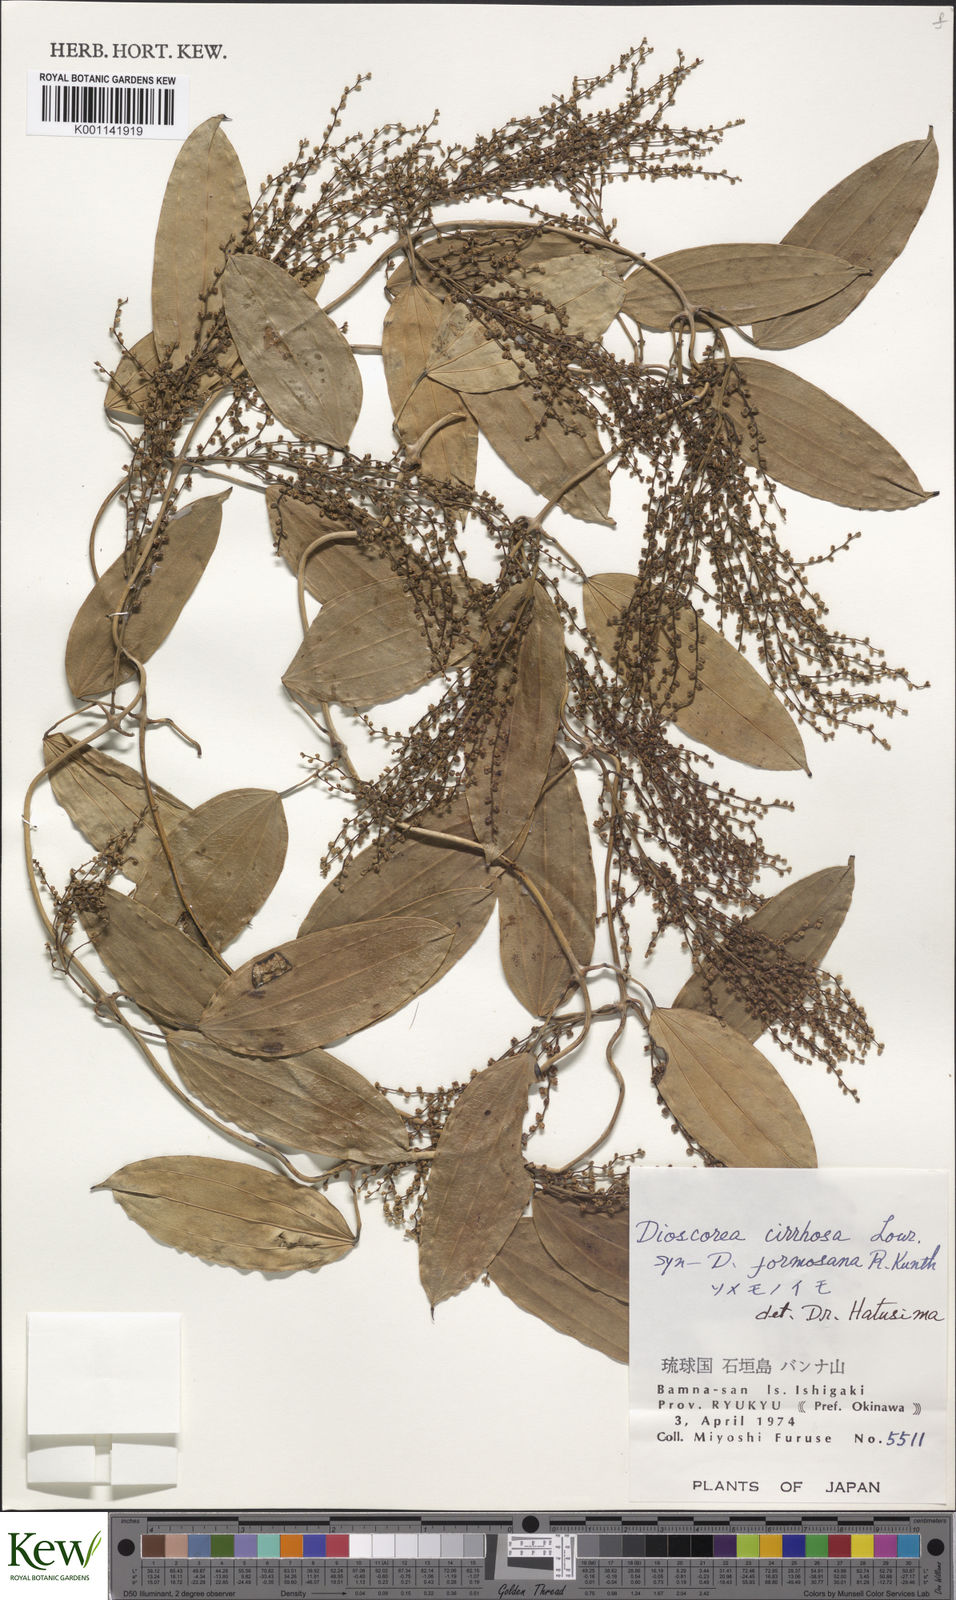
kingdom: Plantae
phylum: Tracheophyta
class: Liliopsida
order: Dioscoreales
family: Dioscoreaceae
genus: Dioscorea
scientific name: Dioscorea cirrhosa
